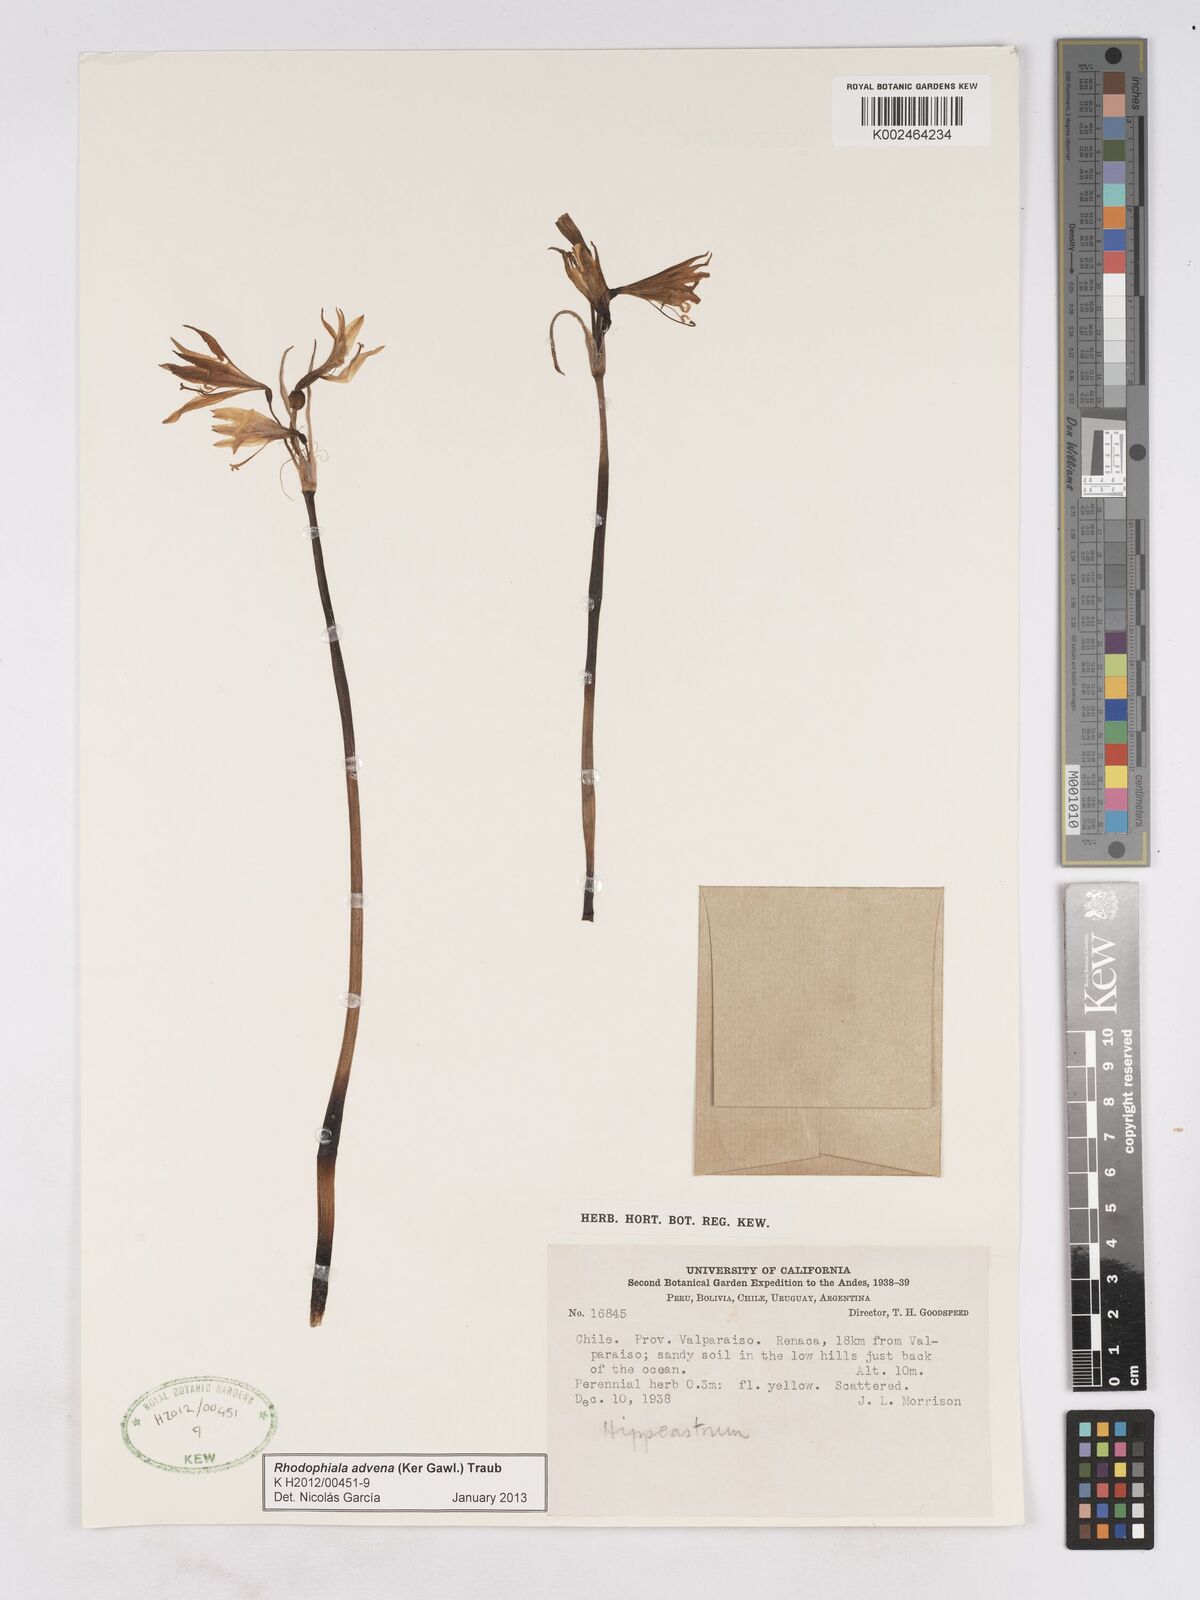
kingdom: Plantae
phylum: Tracheophyta
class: Liliopsida
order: Asparagales
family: Amaryllidaceae
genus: Zephyranthes
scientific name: Zephyranthes advena
